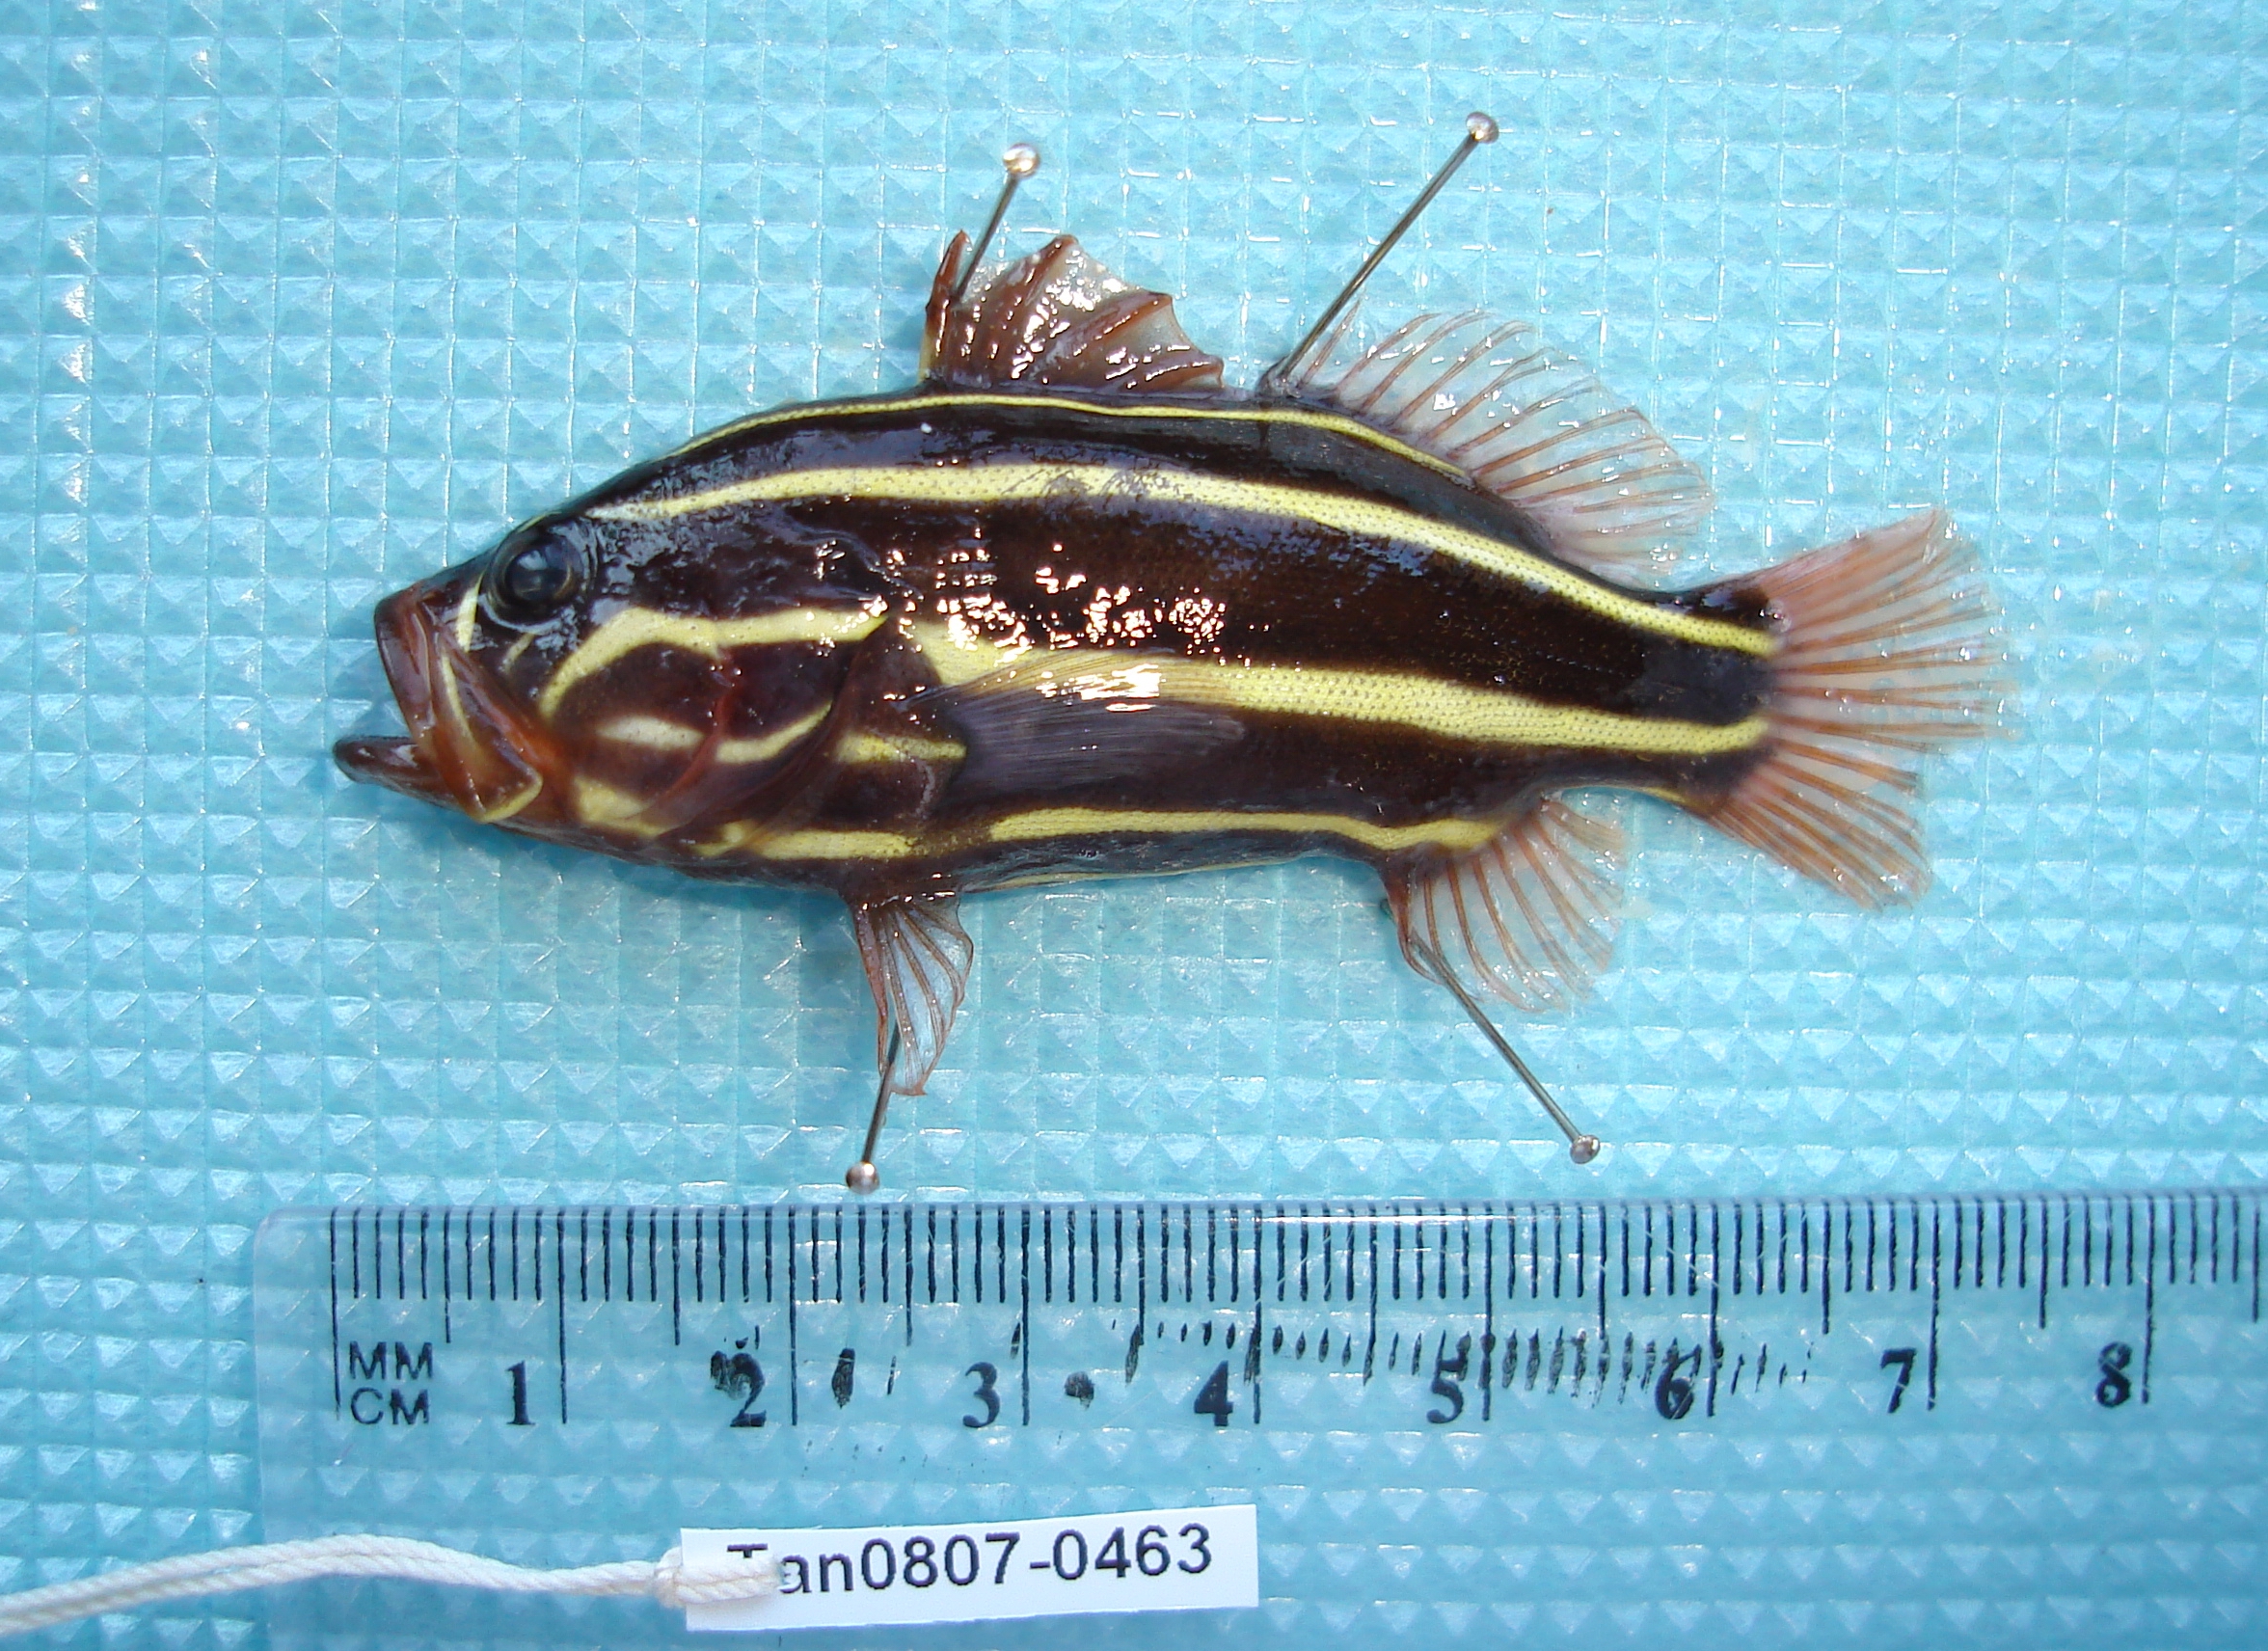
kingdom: Animalia
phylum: Chordata
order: Perciformes
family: Serranidae
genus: Grammistes
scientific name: Grammistes sexlineatus
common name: Sixline soapfish
